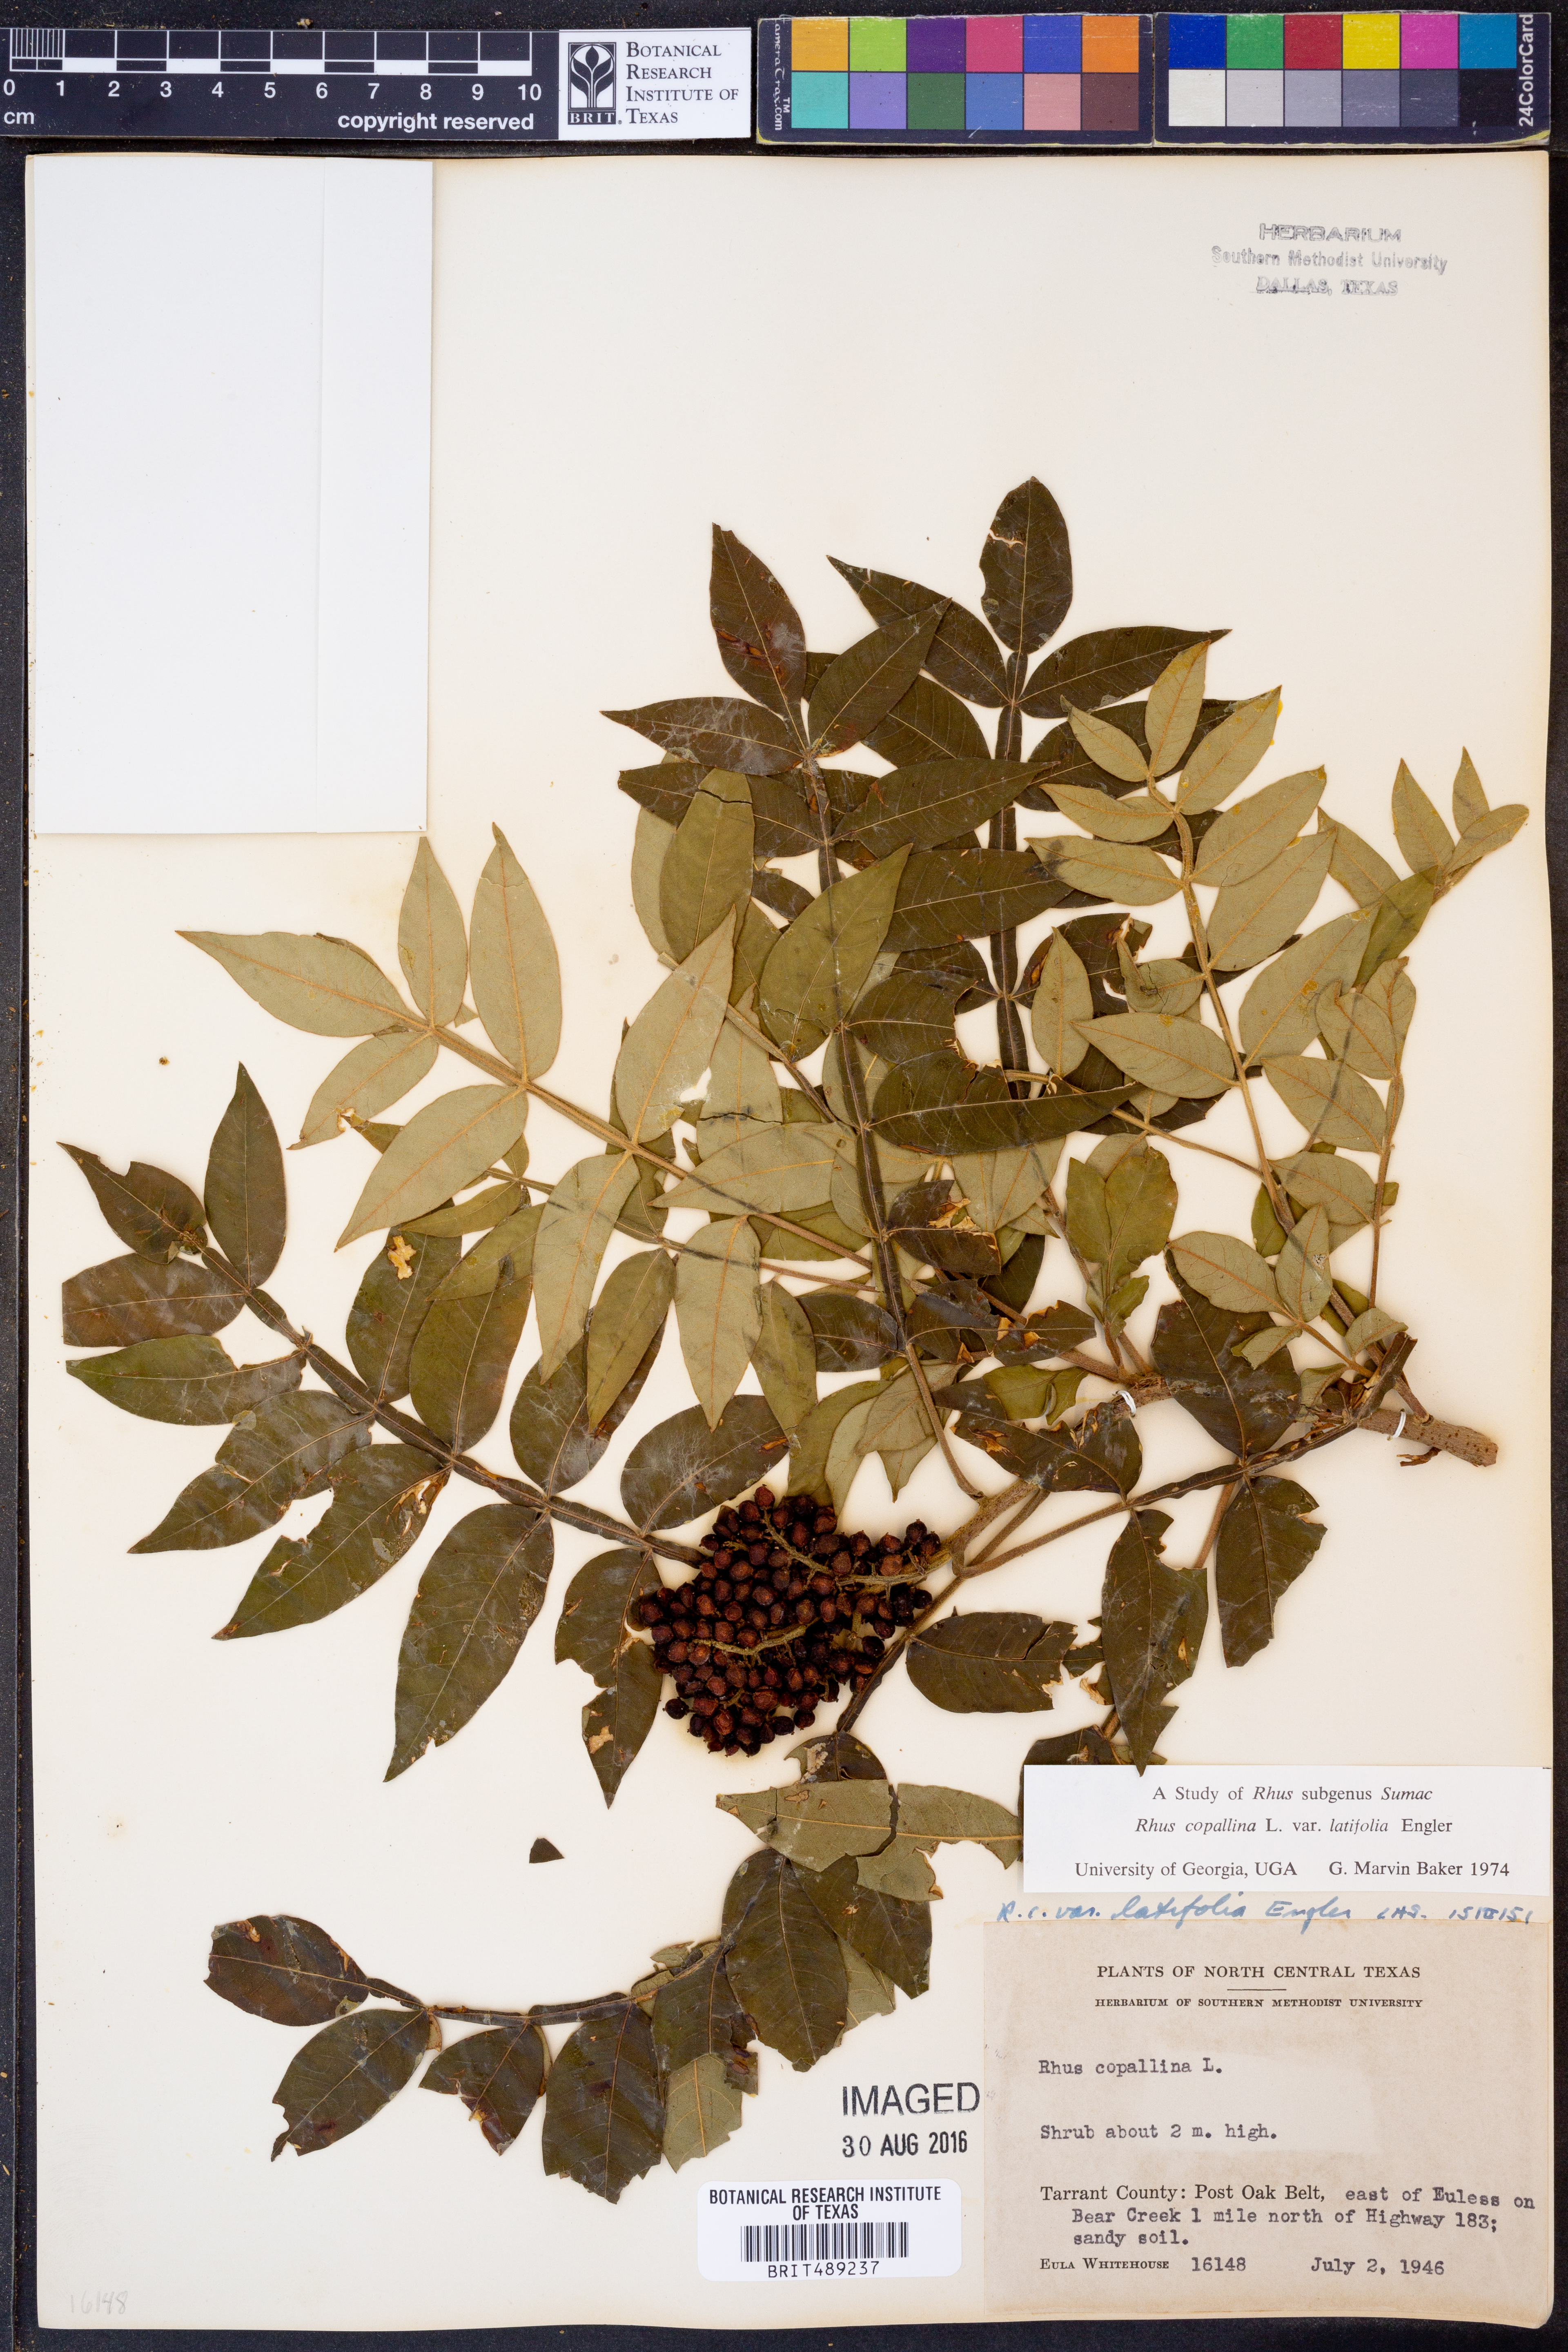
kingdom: Plantae
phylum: Tracheophyta
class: Magnoliopsida
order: Sapindales
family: Anacardiaceae
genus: Rhus
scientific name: Rhus copallina
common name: Shining sumac
